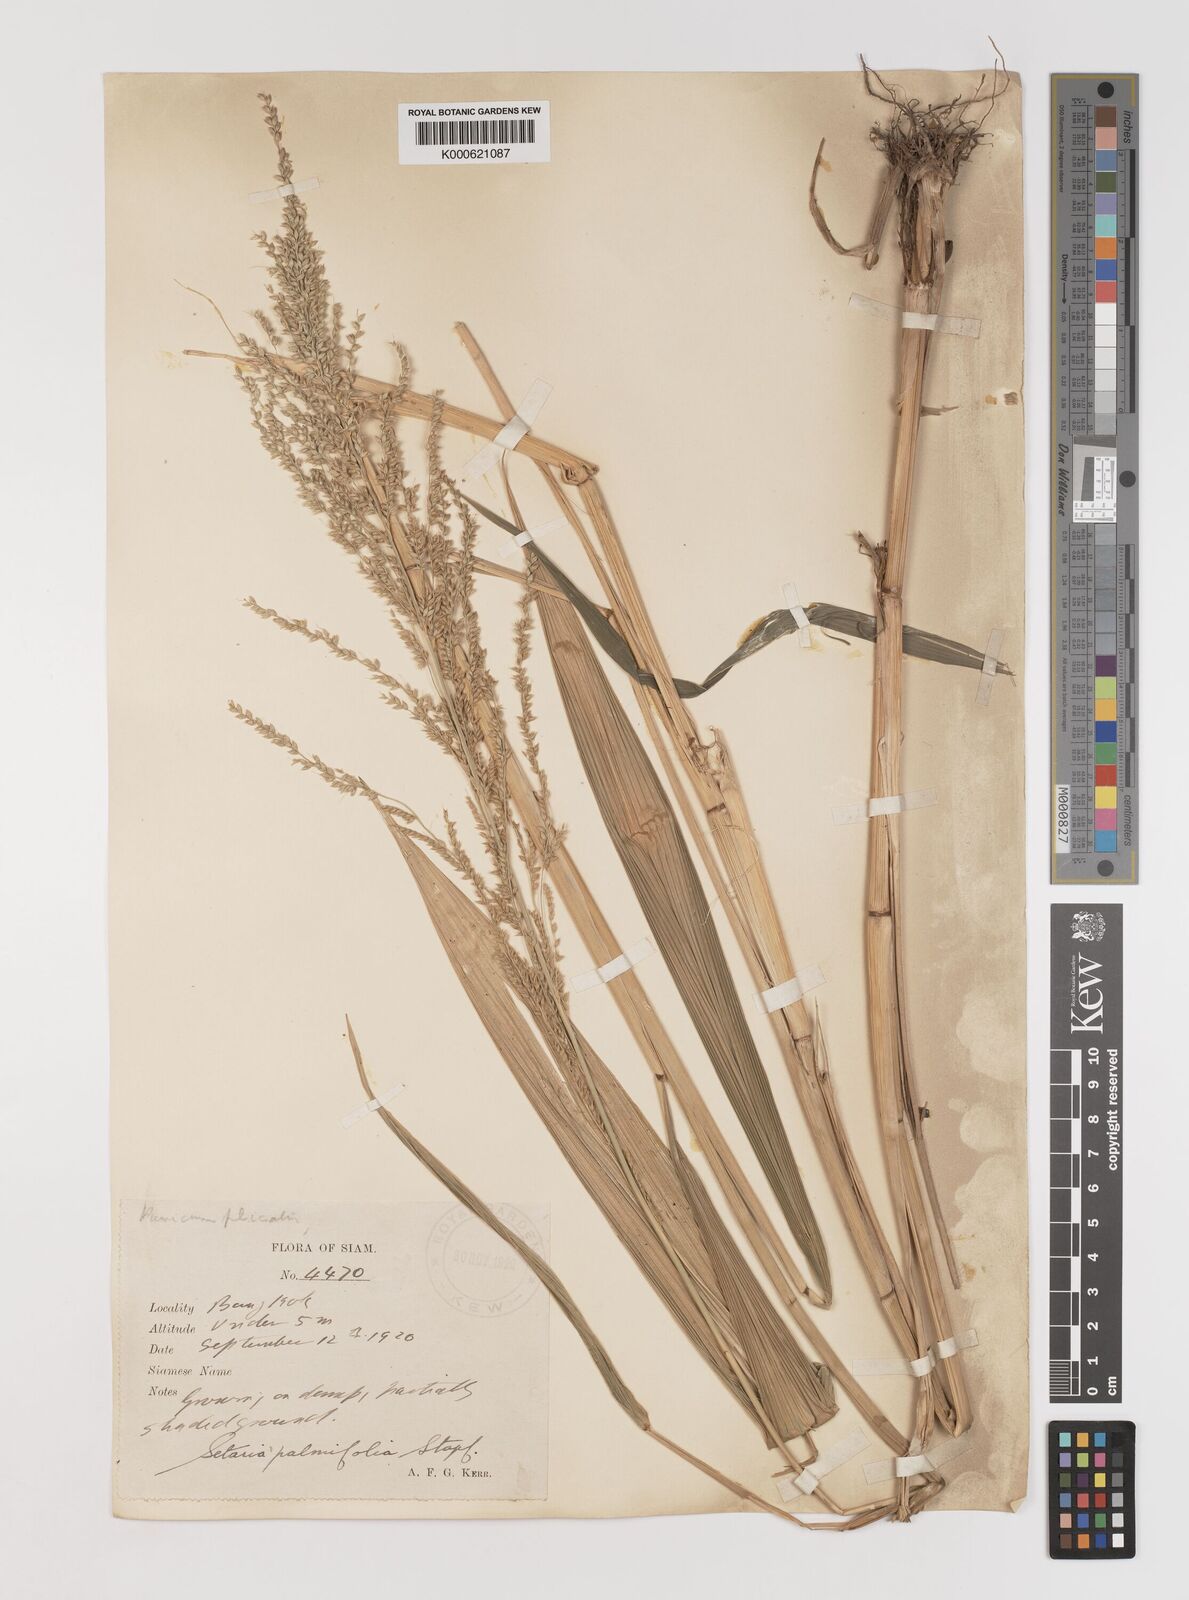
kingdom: Plantae
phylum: Tracheophyta
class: Liliopsida
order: Poales
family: Poaceae
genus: Setaria
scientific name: Setaria palmifolia
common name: Broadleaved bristlegrass
